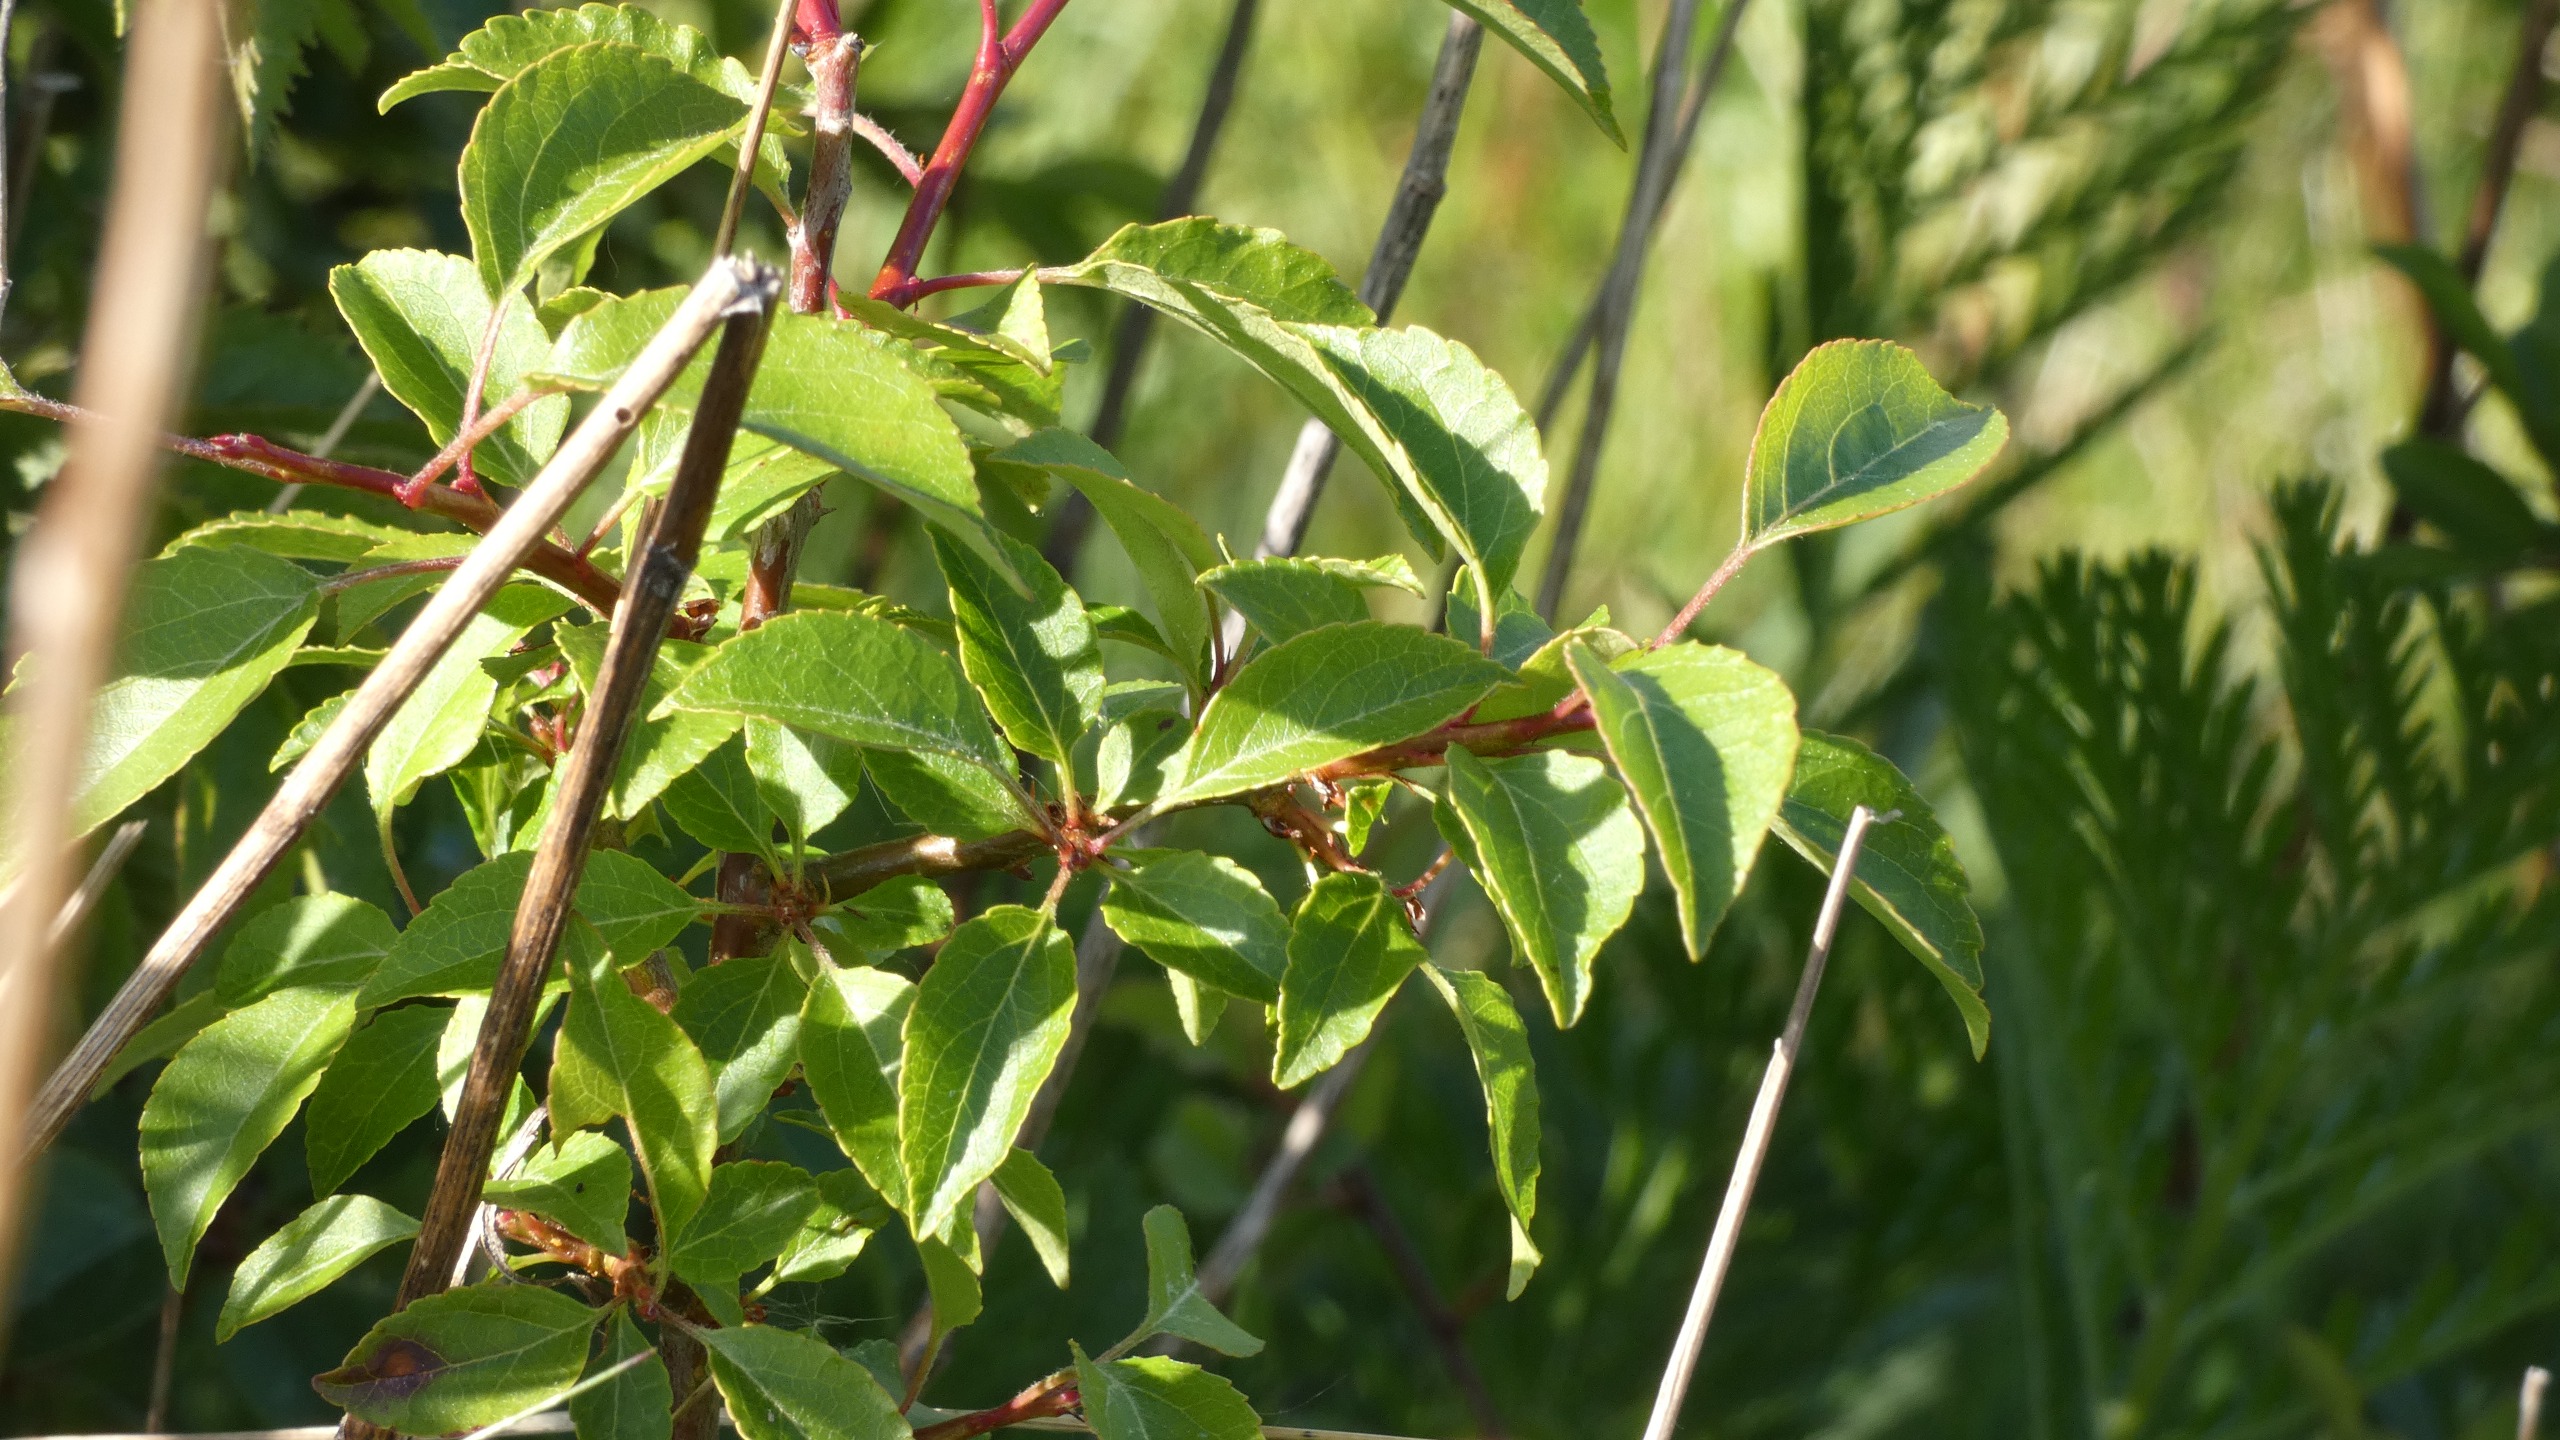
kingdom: Plantae
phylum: Tracheophyta
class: Magnoliopsida
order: Rosales
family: Rosaceae
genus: Prunus
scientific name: Prunus spinosa
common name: Slåen
